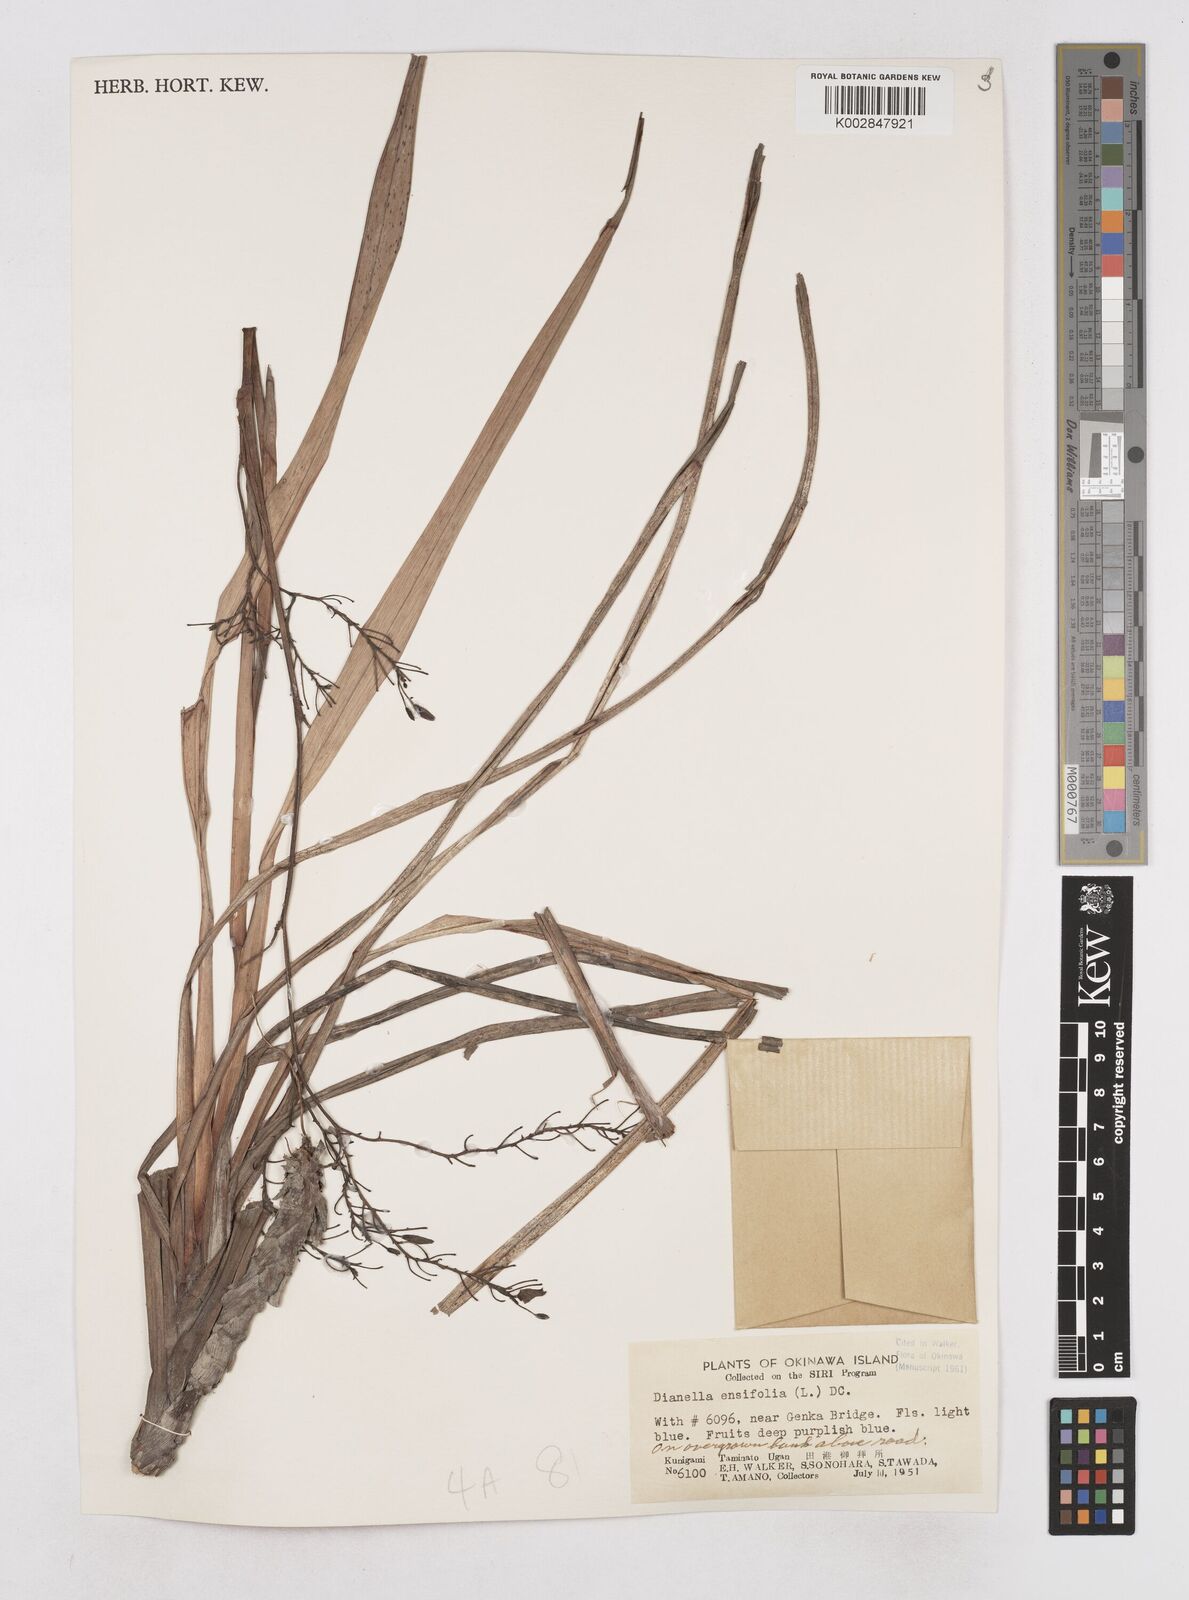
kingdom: Plantae
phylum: Tracheophyta
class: Liliopsida
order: Asparagales
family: Asphodelaceae
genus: Dianella
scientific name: Dianella ensifolia
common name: New zealand lilyplant
